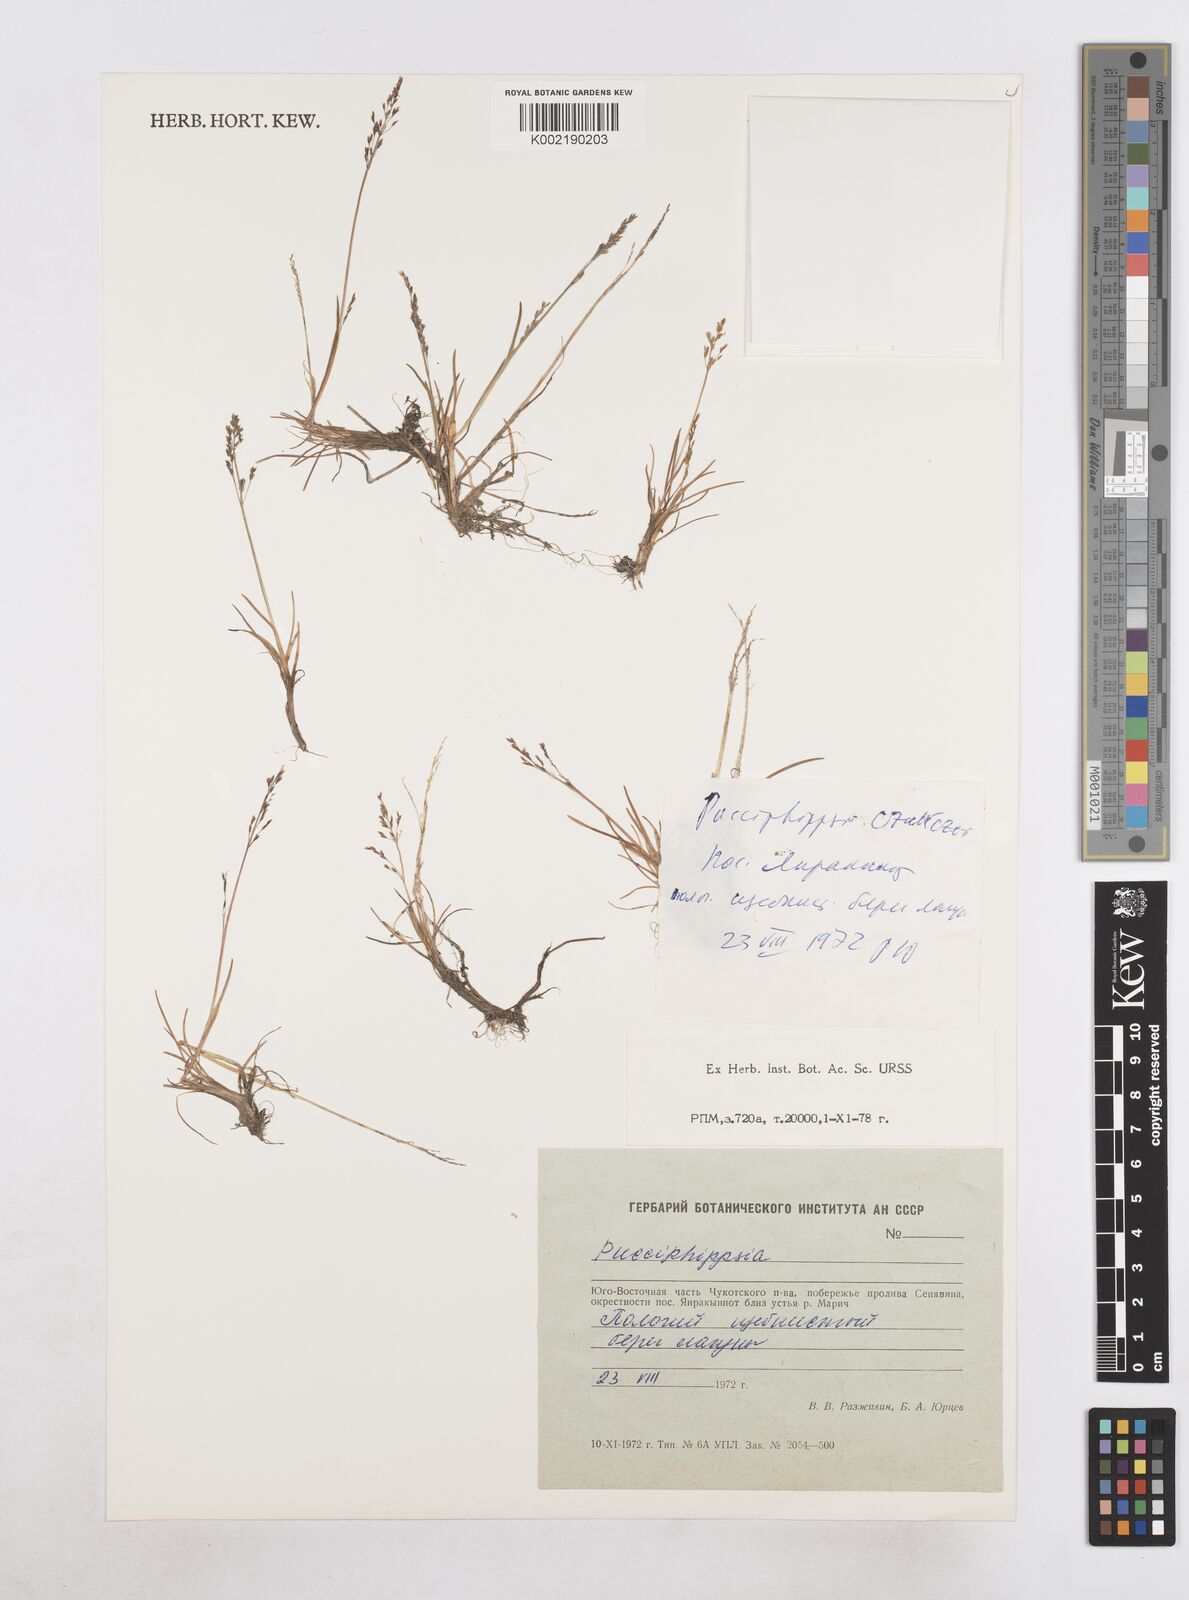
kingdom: Plantae
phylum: Tracheophyta
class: Liliopsida
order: Poales
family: Poaceae
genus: Phippsia
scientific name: Phippsia
